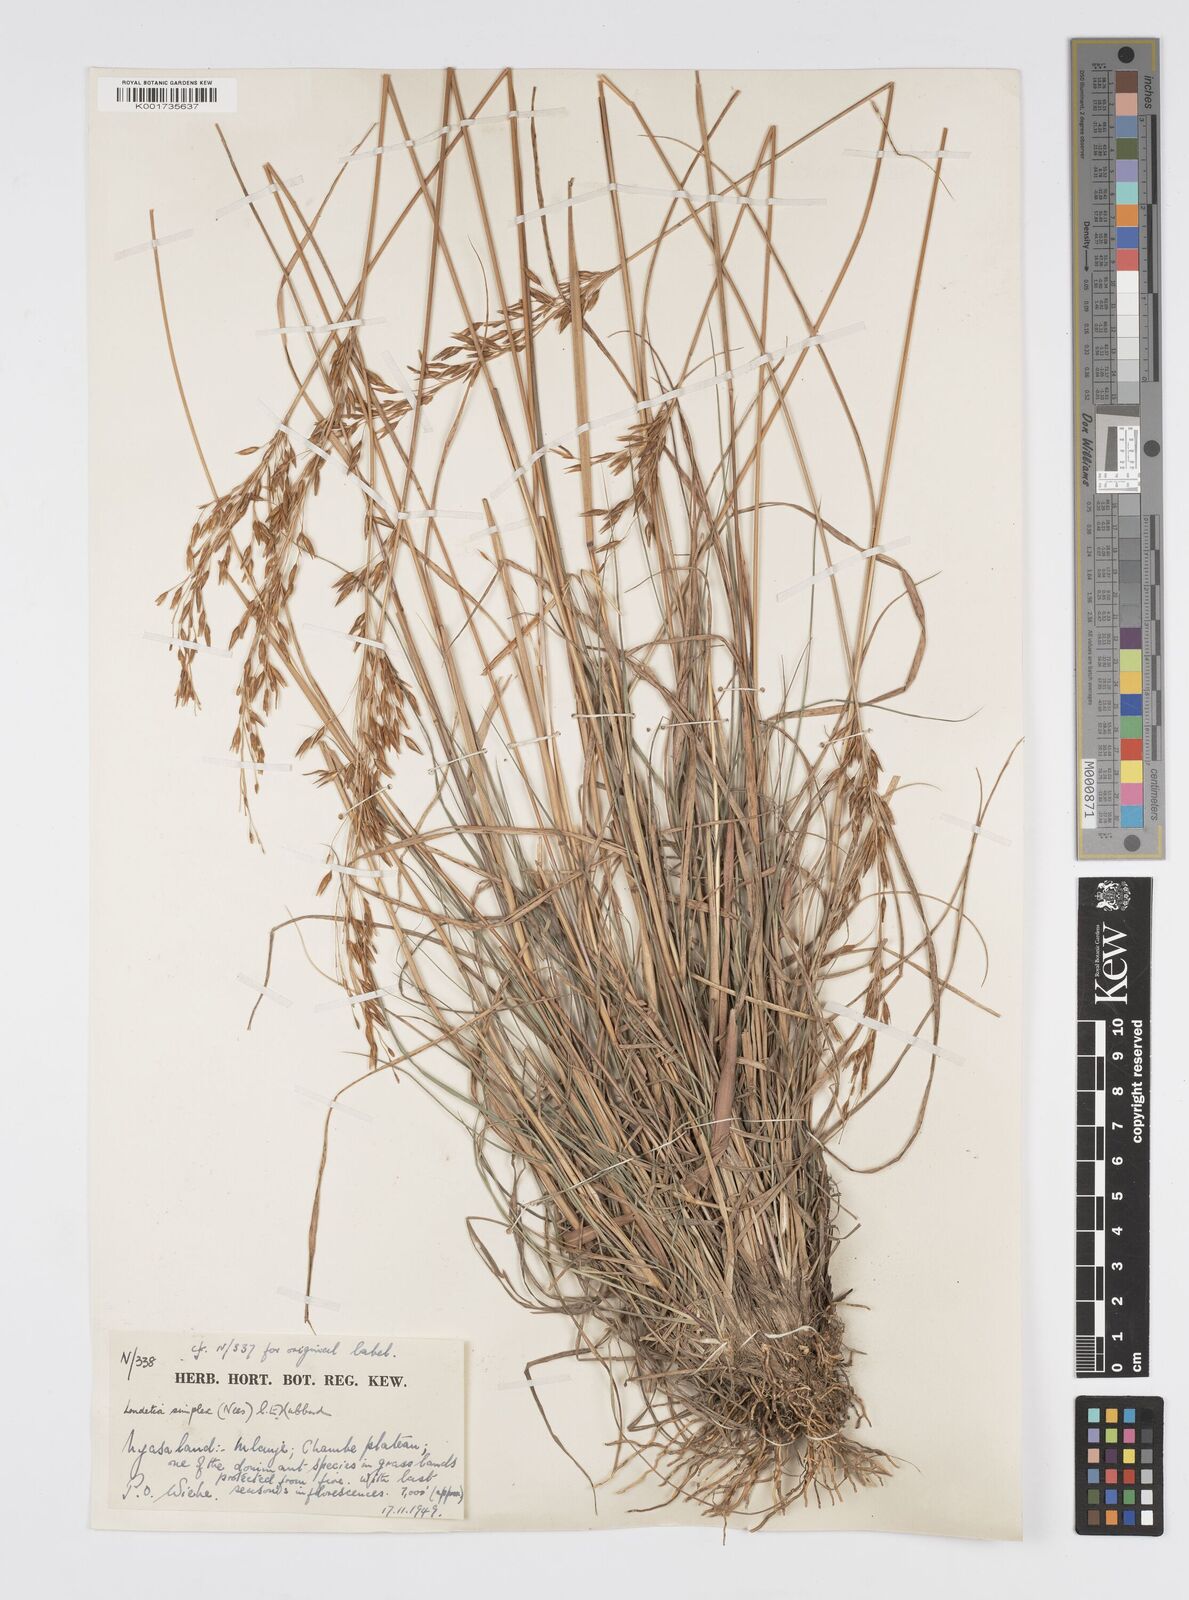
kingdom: Plantae
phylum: Tracheophyta
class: Liliopsida
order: Poales
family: Poaceae
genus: Loudetia
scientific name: Loudetia simplex
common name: Common russet grass
